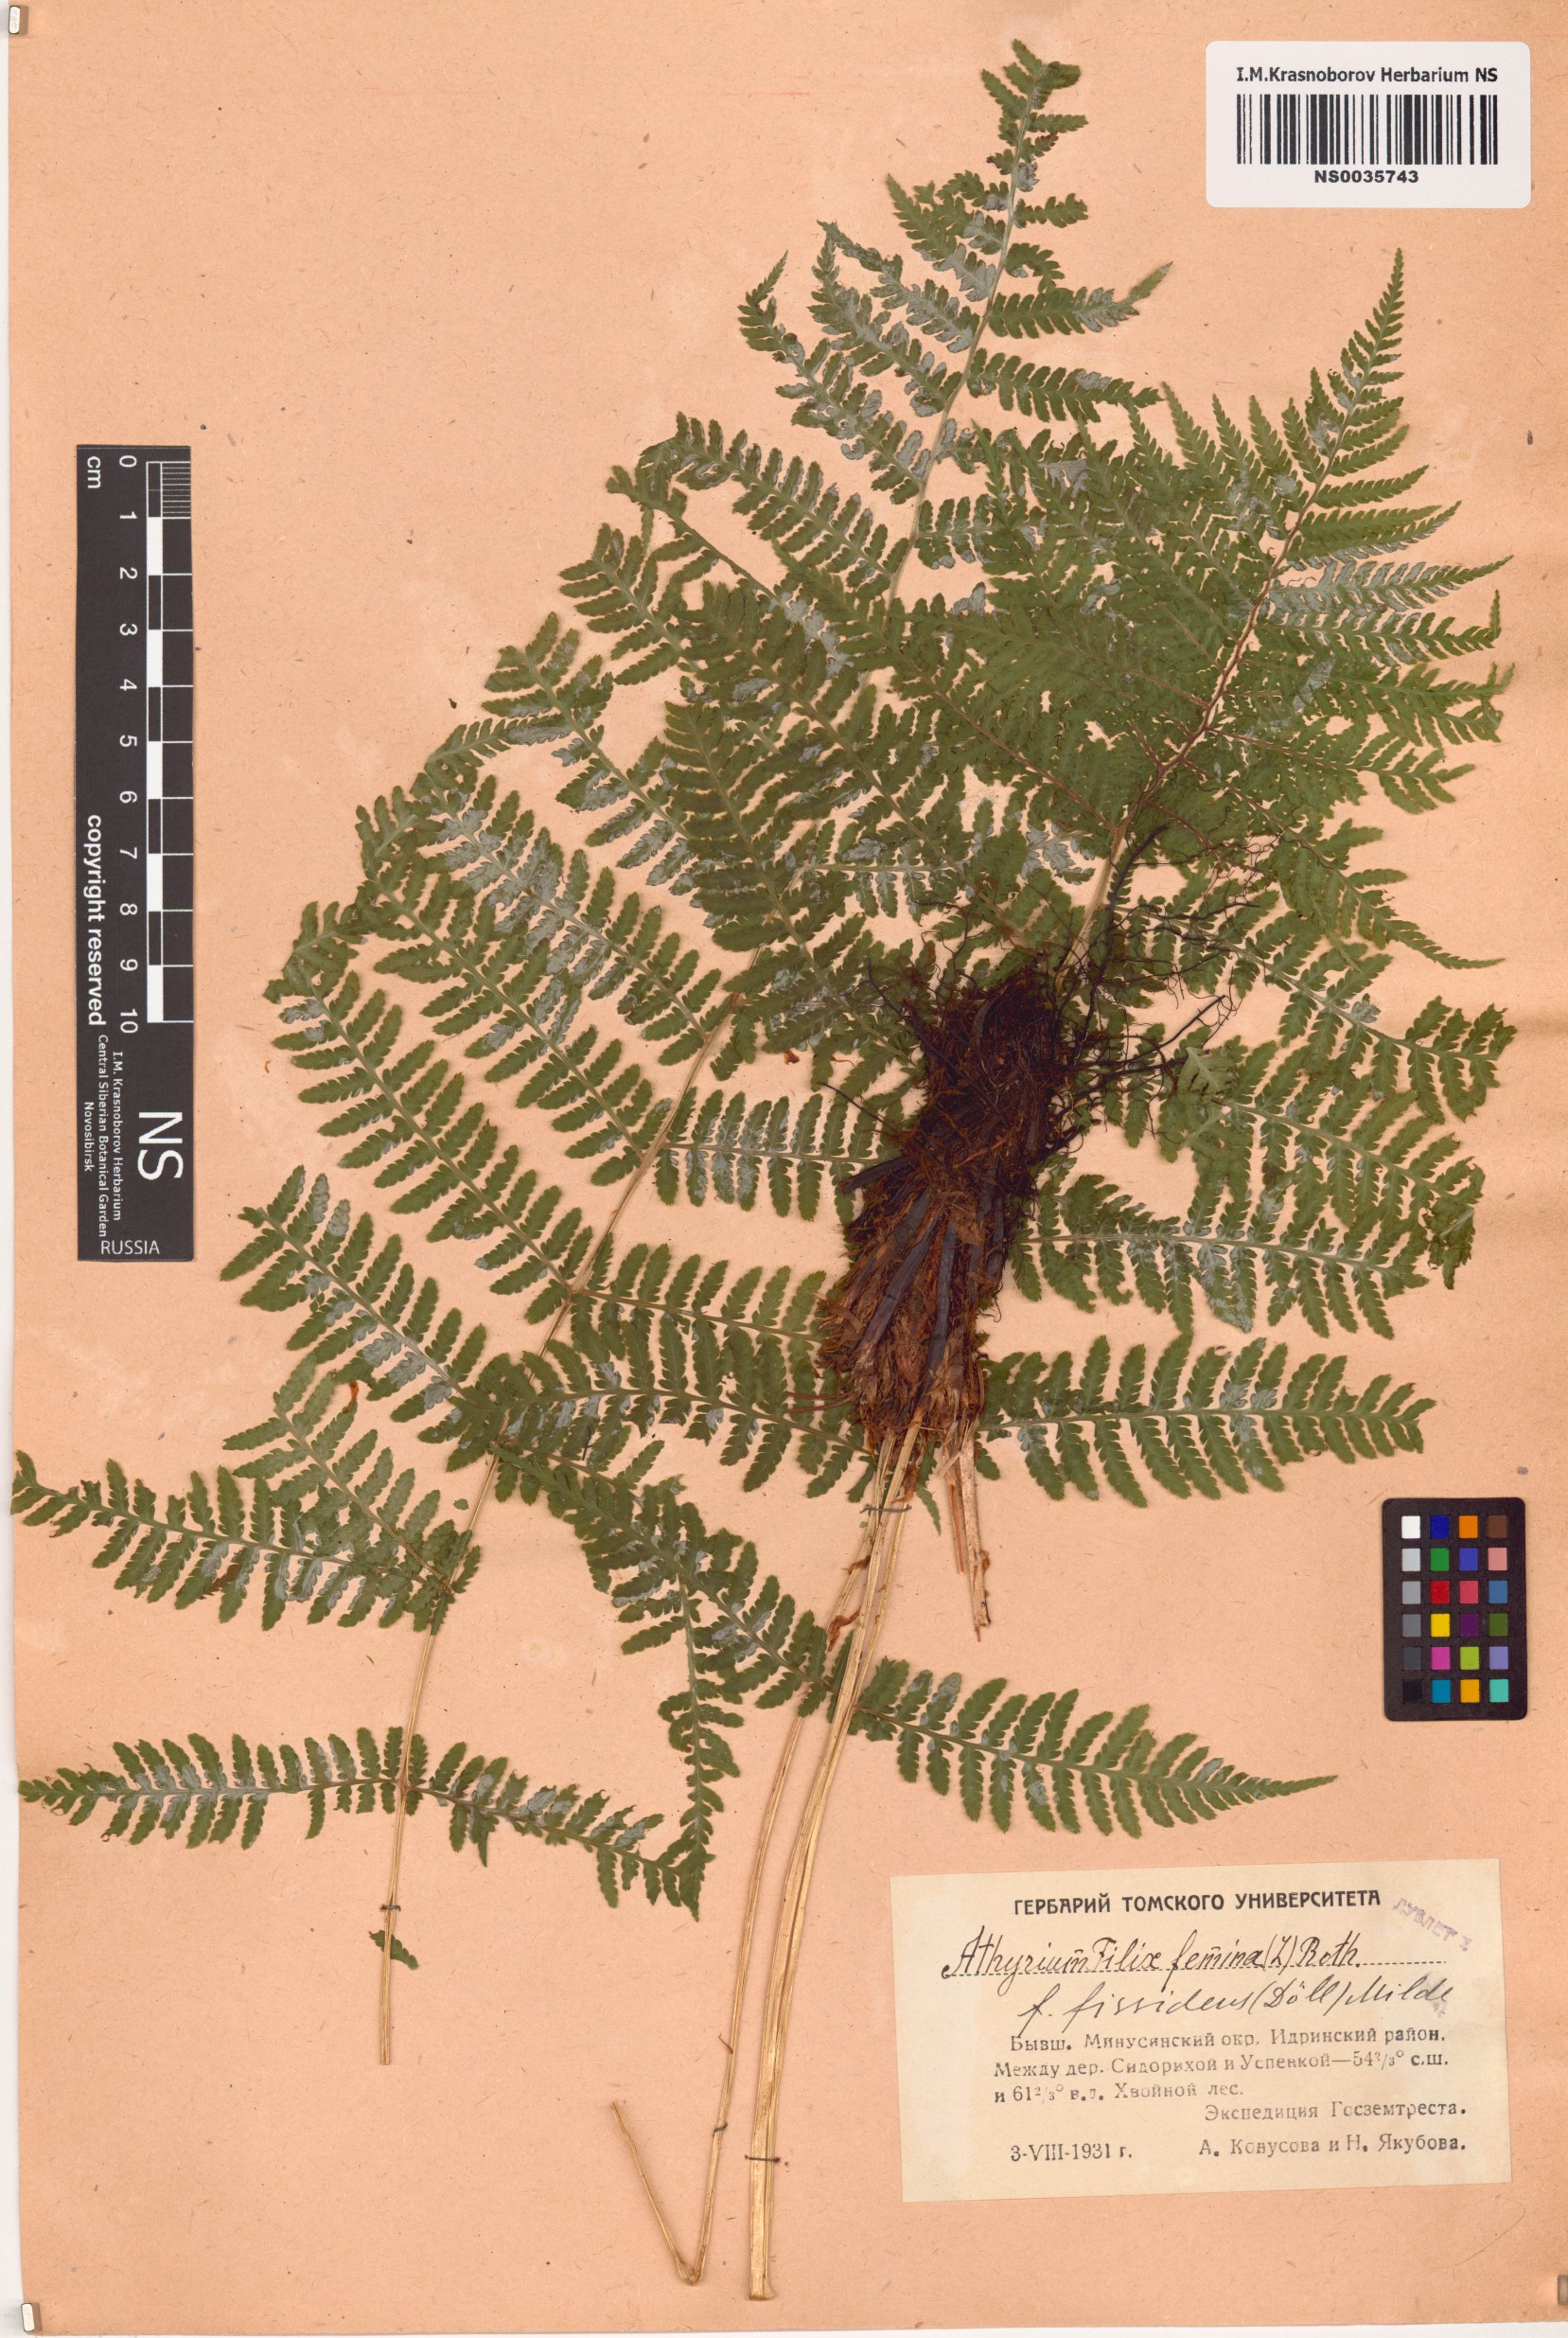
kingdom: Plantae
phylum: Tracheophyta
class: Polypodiopsida
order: Polypodiales
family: Athyriaceae
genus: Athyrium
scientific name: Athyrium filix-femina
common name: Lady fern
